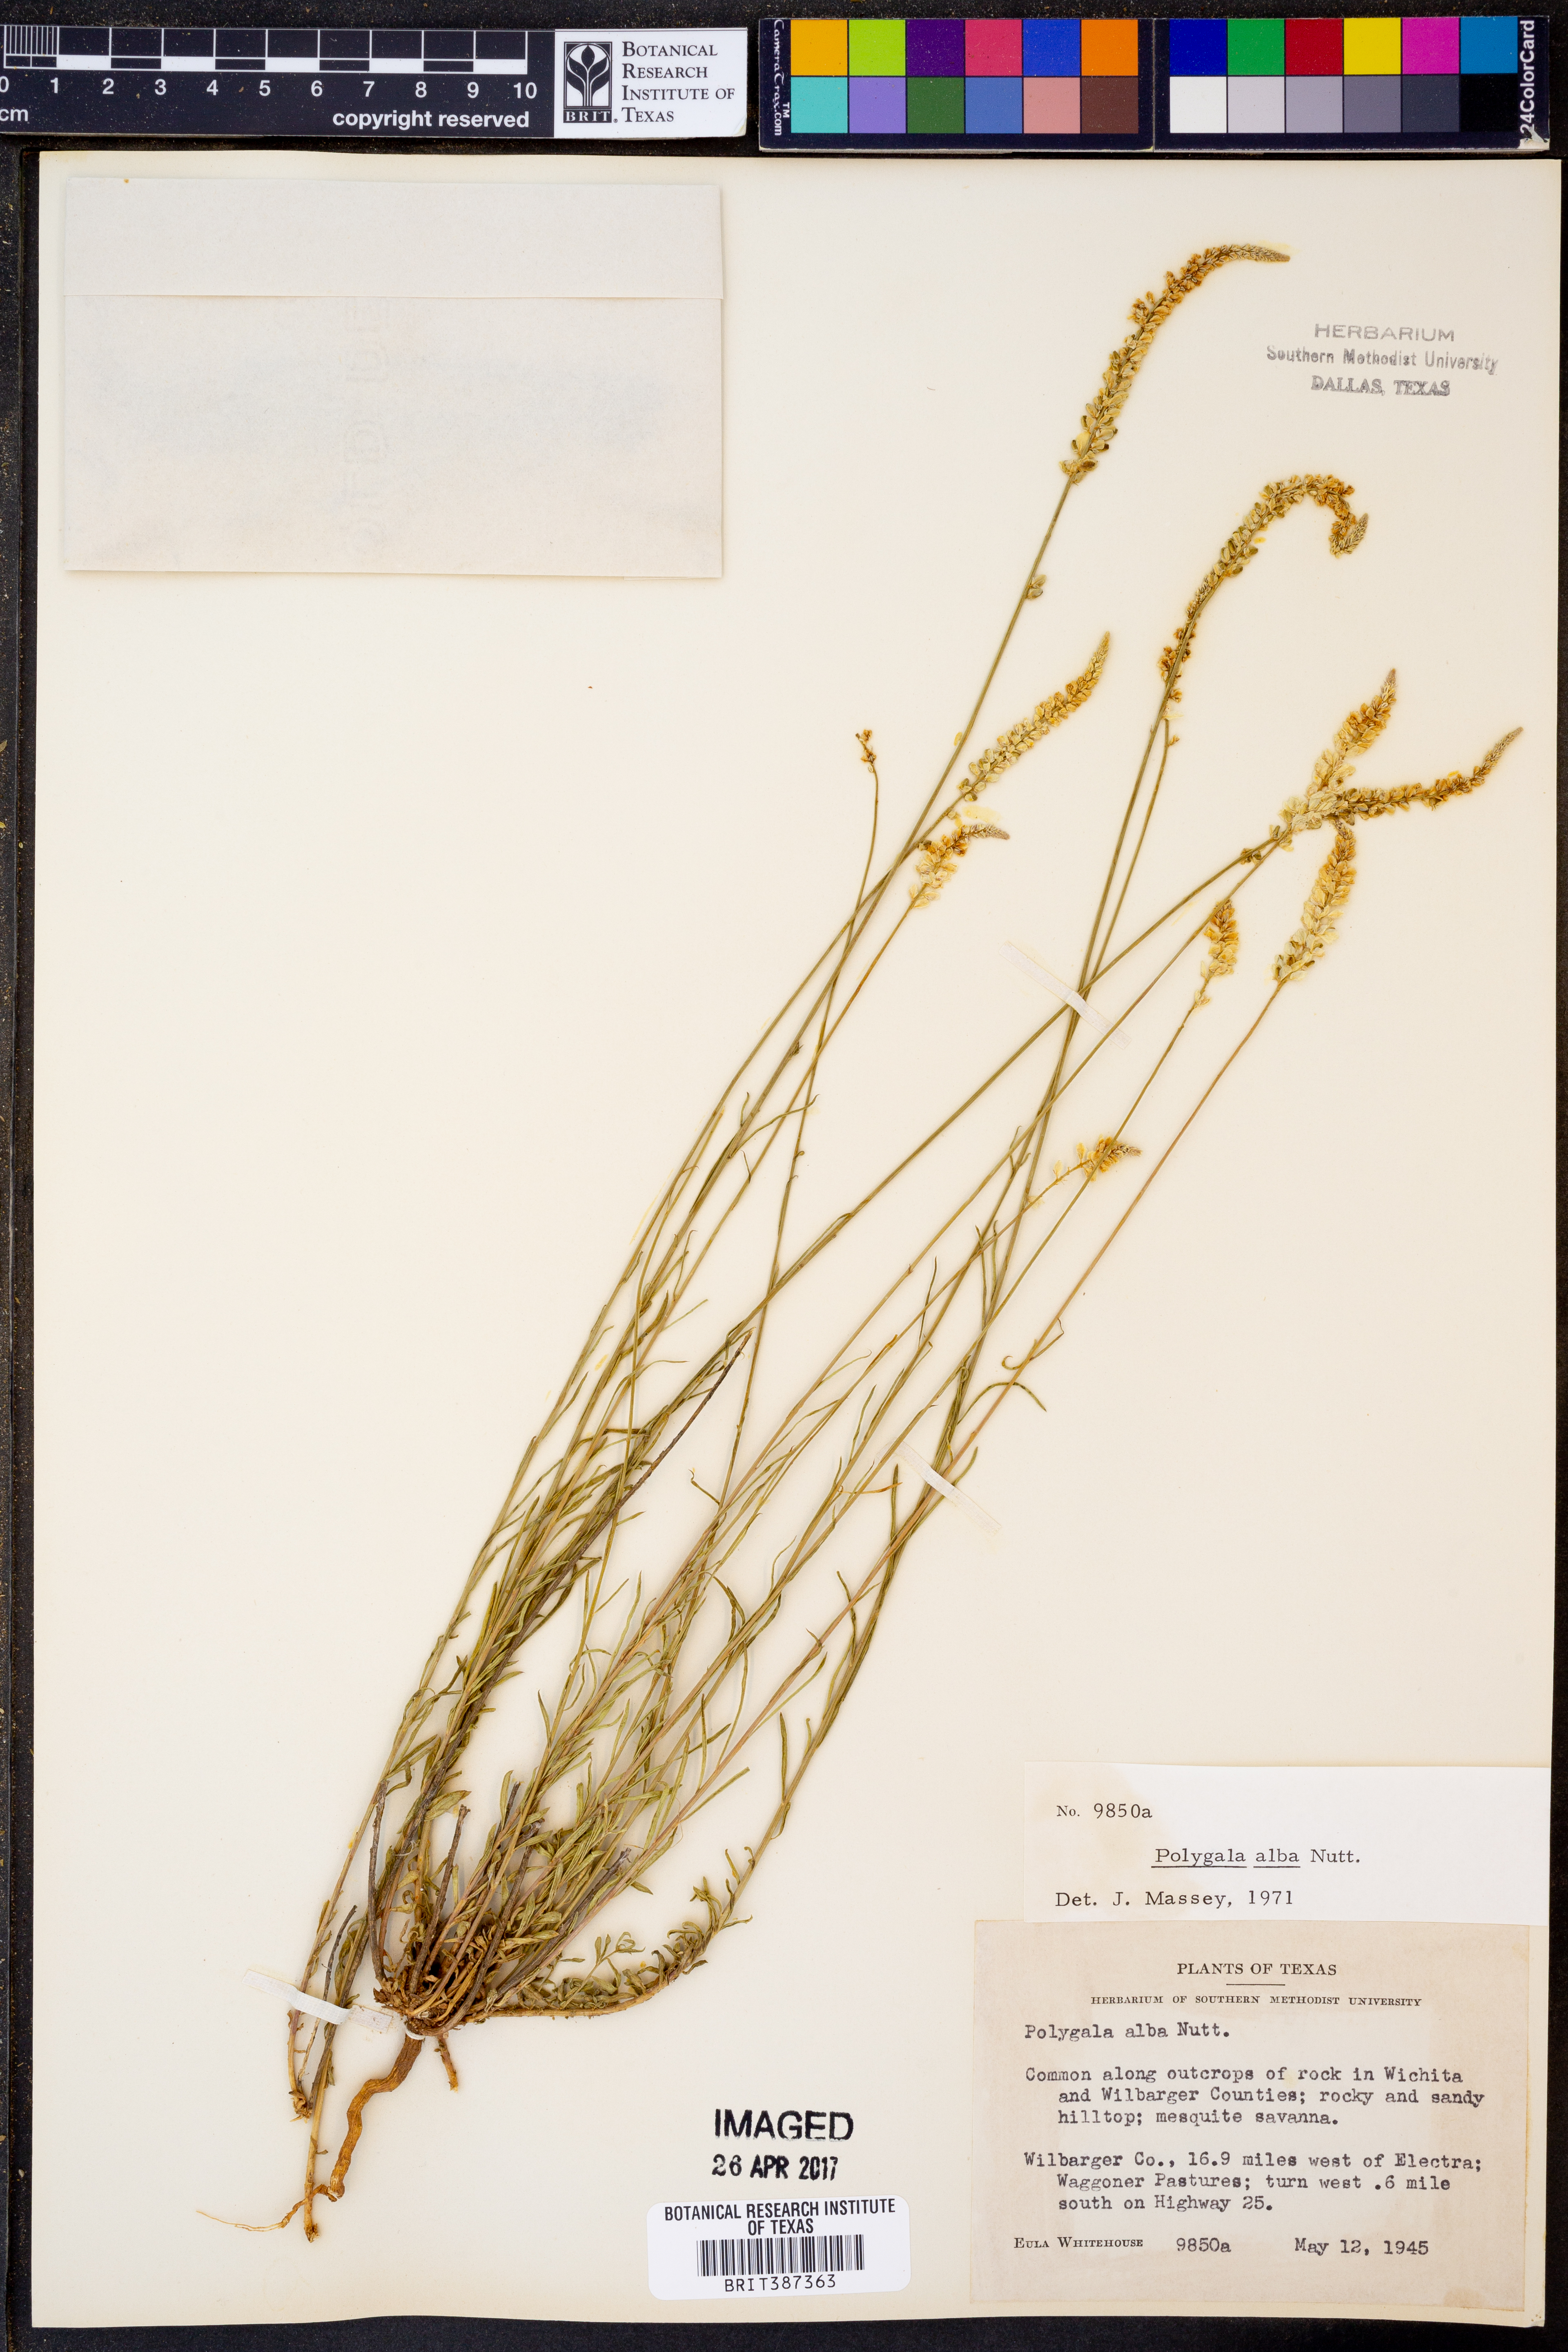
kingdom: Plantae
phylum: Tracheophyta
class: Magnoliopsida
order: Fabales
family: Polygalaceae
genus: Polygala
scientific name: Polygala alba
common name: White milkwort
